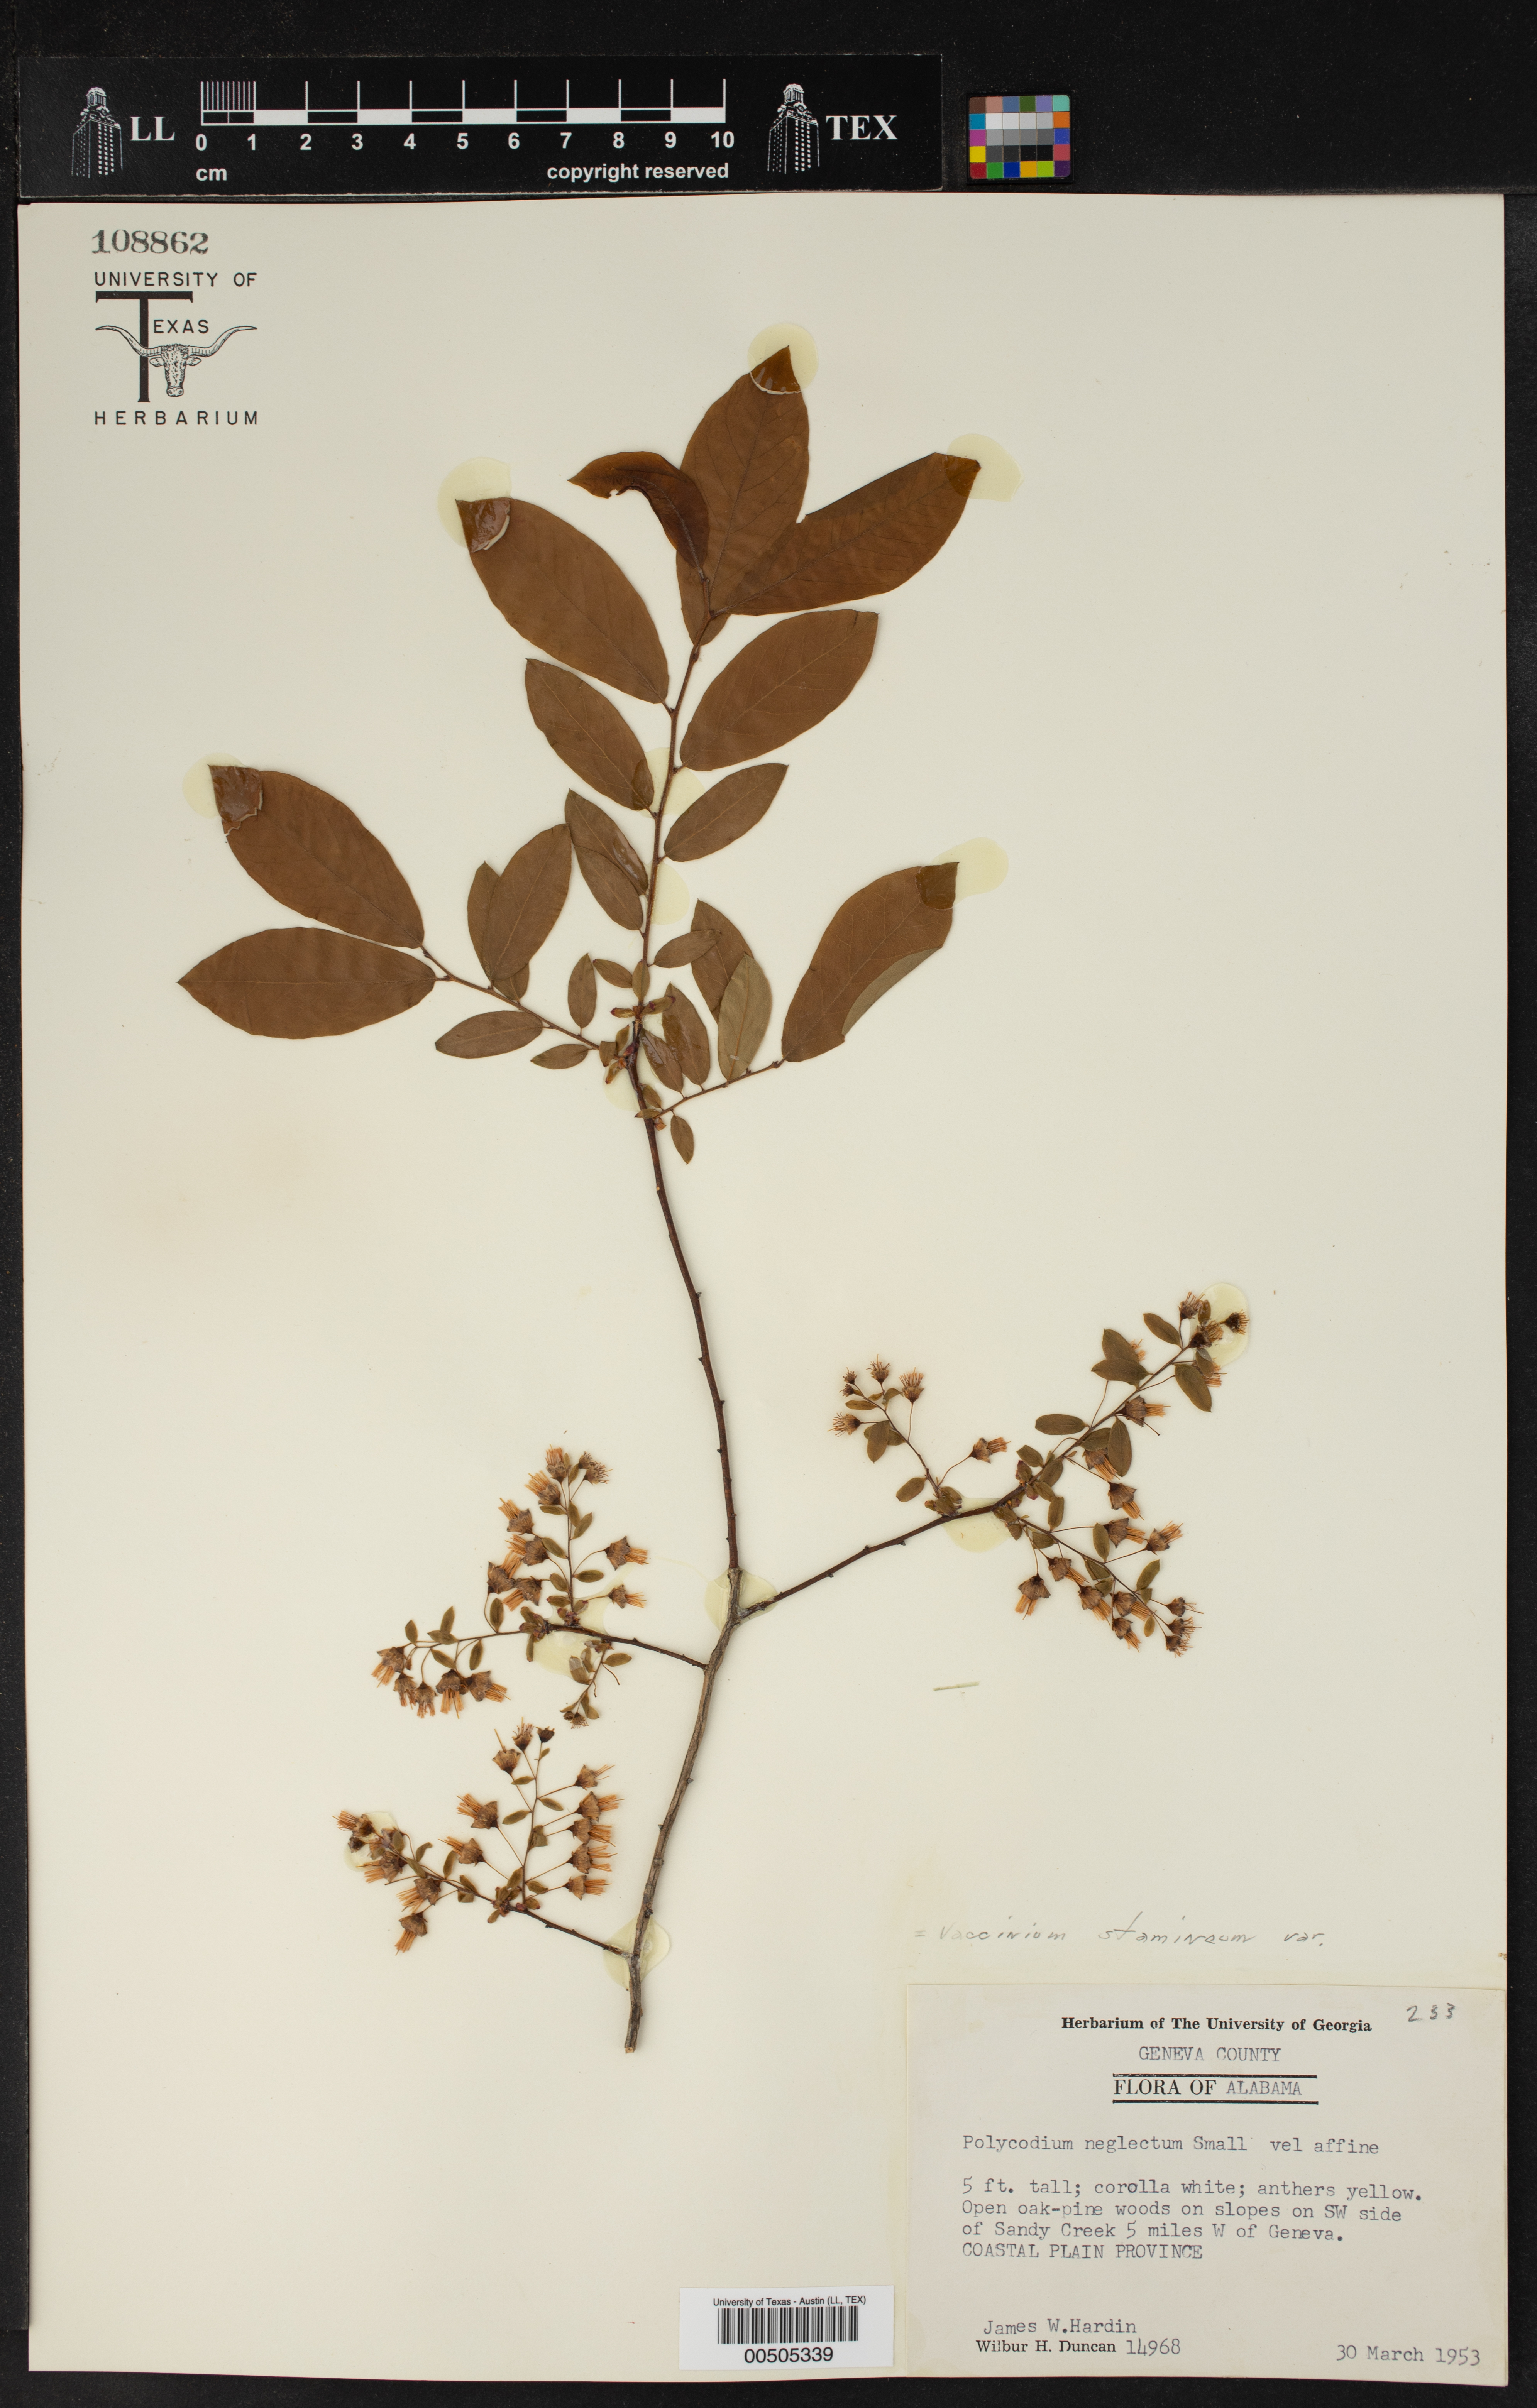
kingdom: Plantae
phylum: Tracheophyta
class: Magnoliopsida
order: Ericales
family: Ericaceae
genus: Vaccinium
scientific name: Vaccinium stamineum
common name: Deerberry
